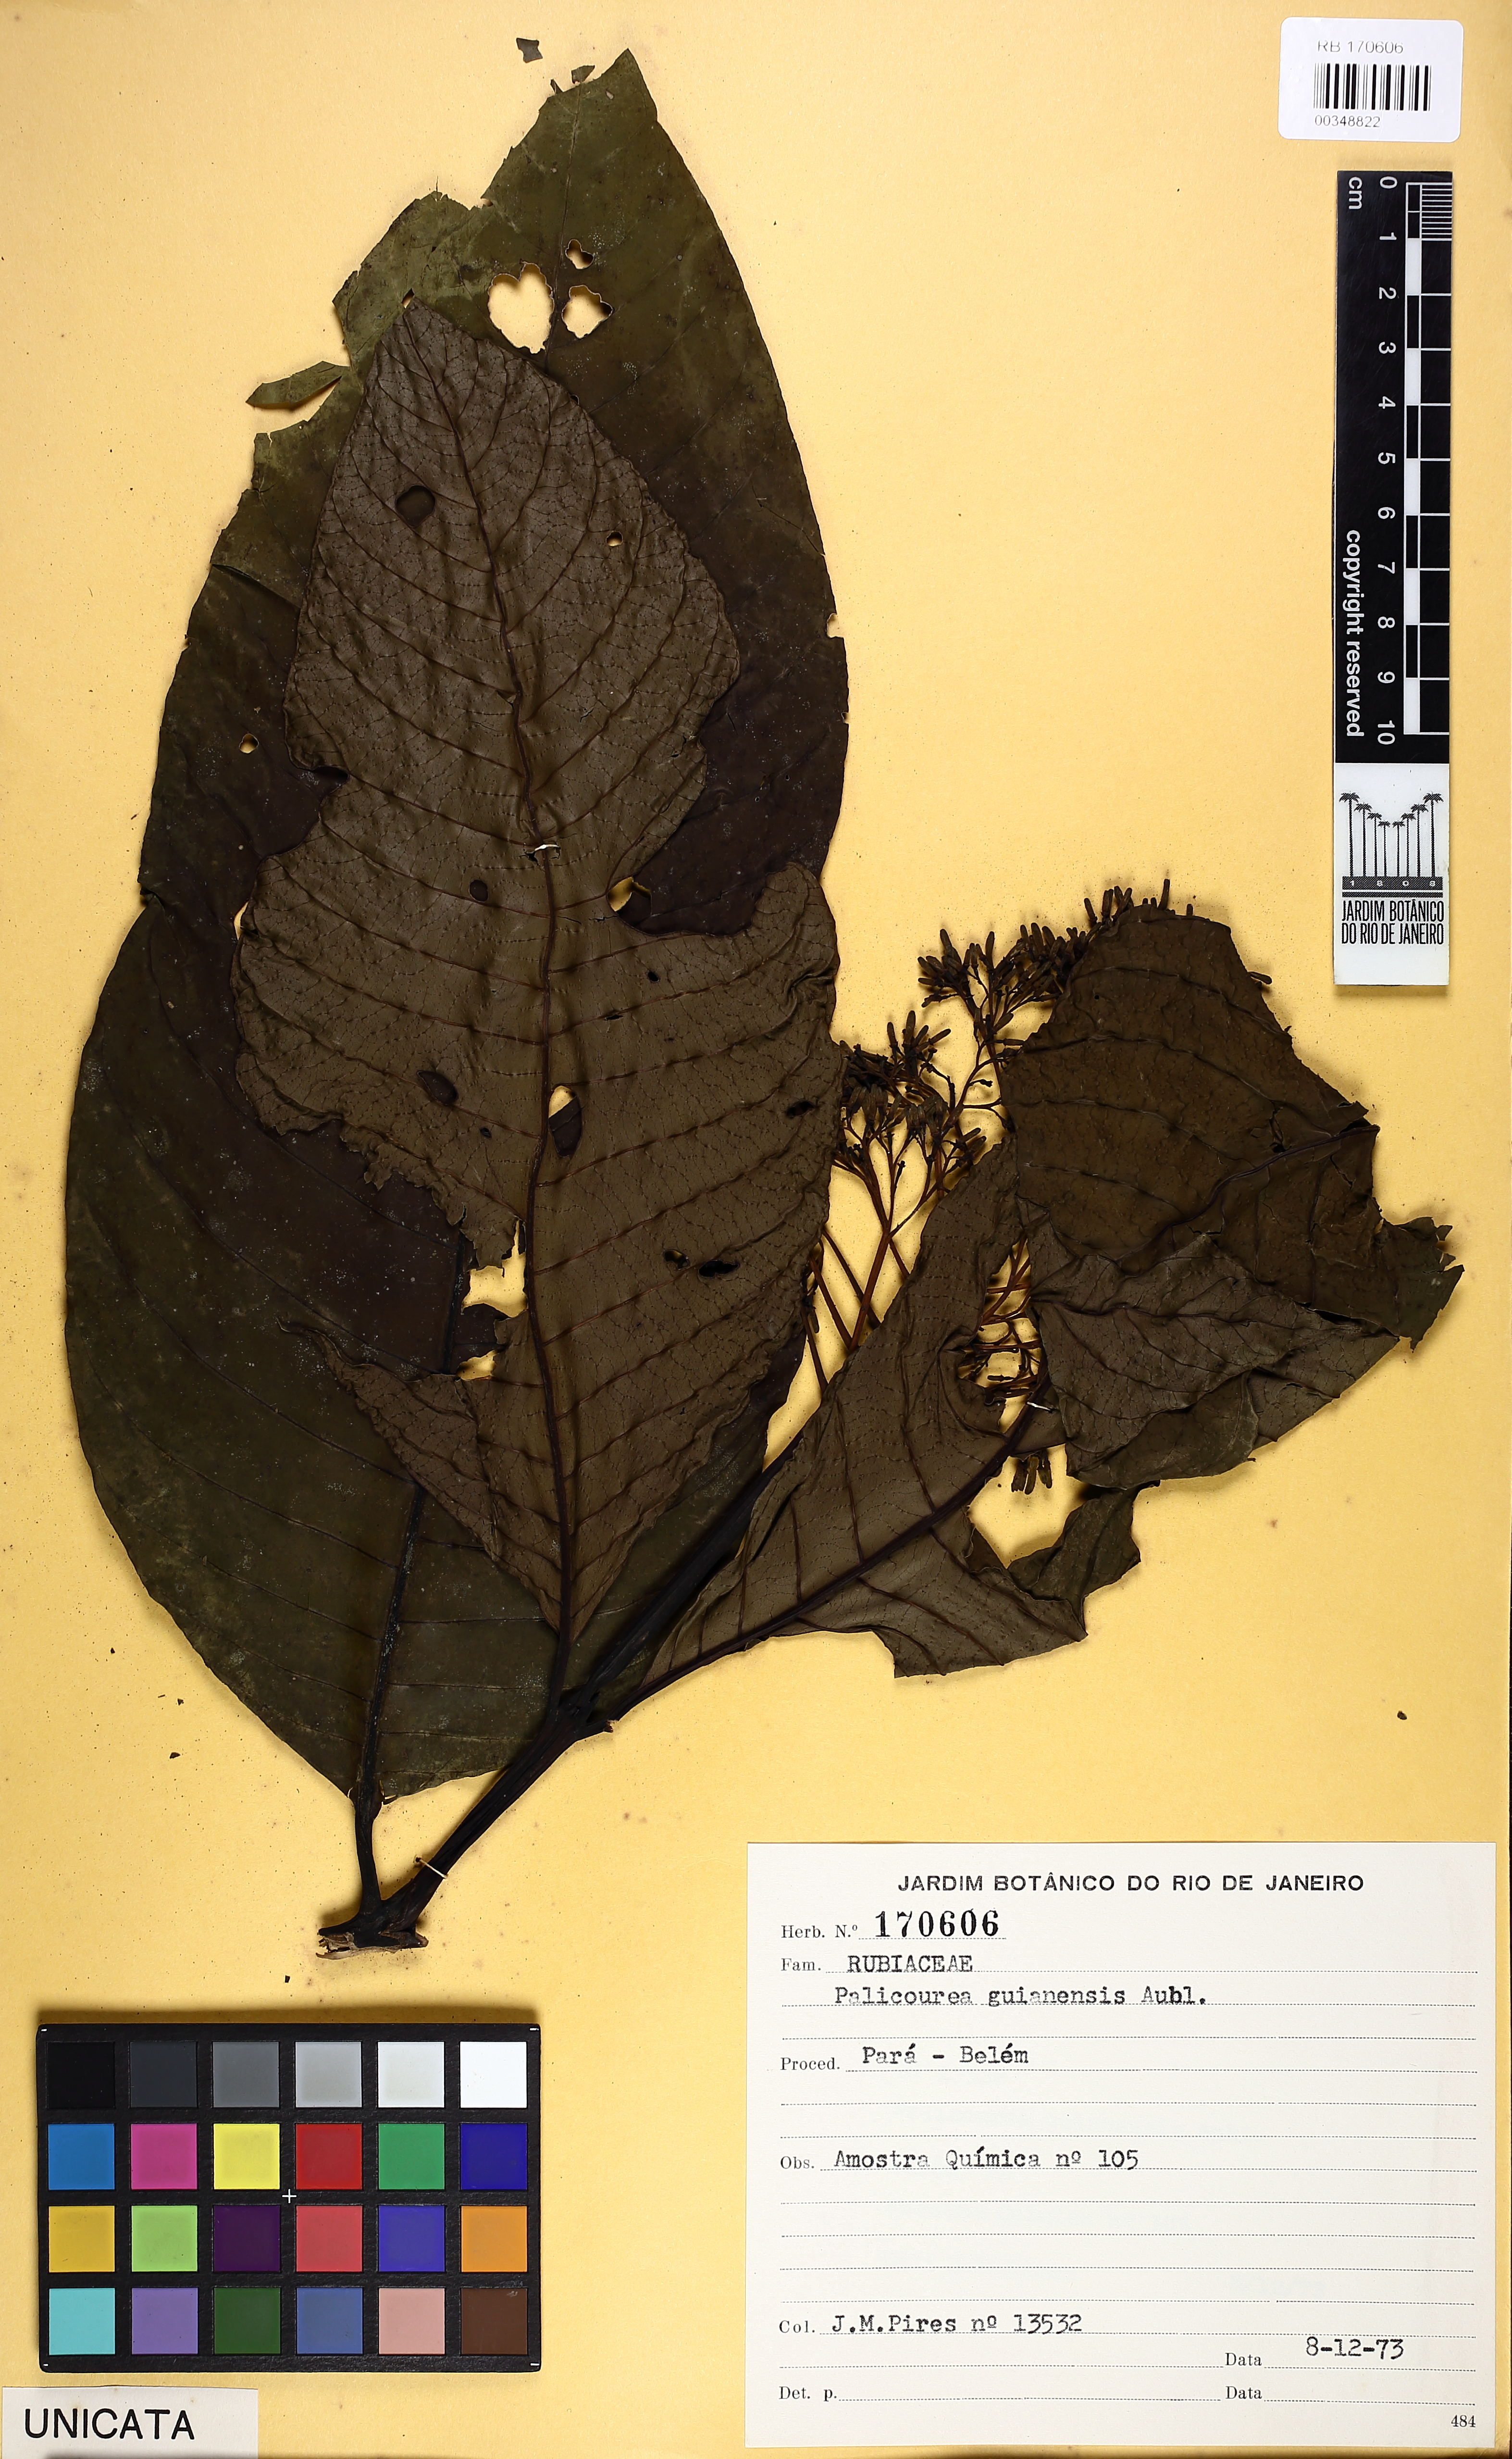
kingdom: Plantae
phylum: Tracheophyta
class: Magnoliopsida
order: Gentianales
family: Rubiaceae
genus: Palicourea
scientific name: Palicourea guianensis
